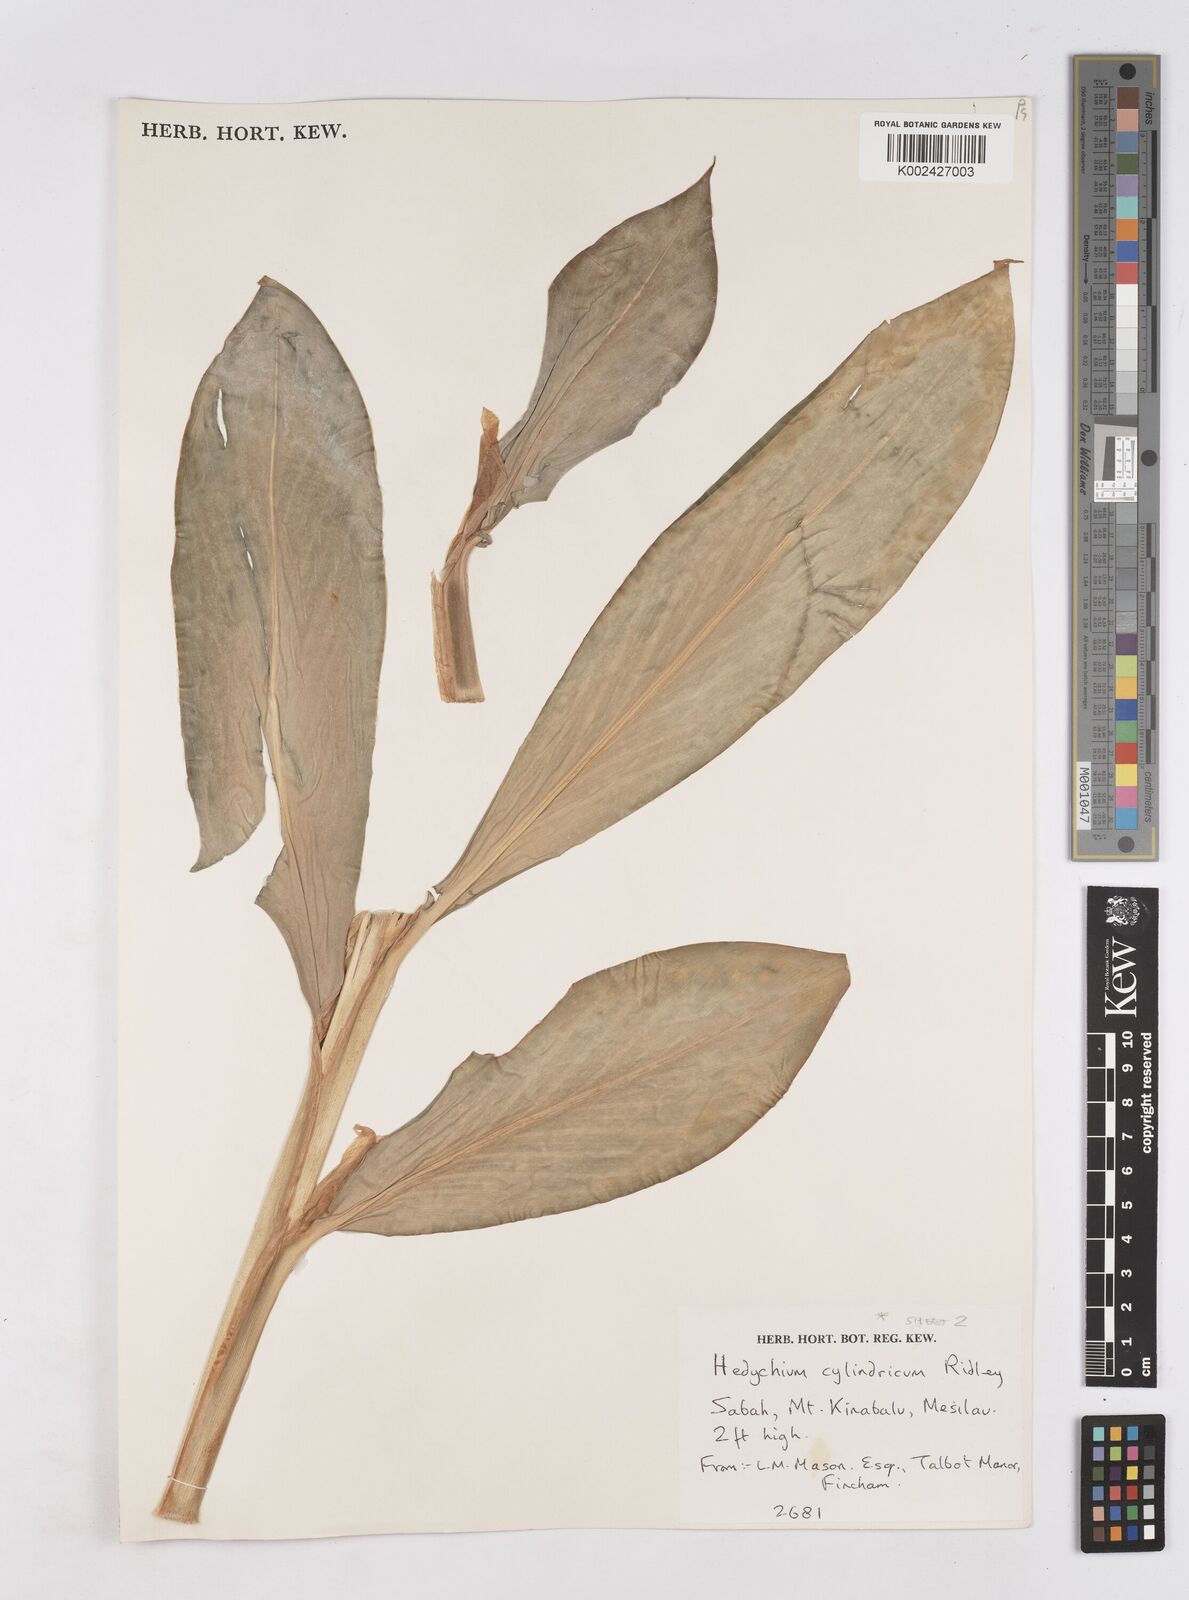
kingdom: Plantae
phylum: Tracheophyta
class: Liliopsida
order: Zingiberales
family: Zingiberaceae
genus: Hedychium
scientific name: Hedychium cylindricum
